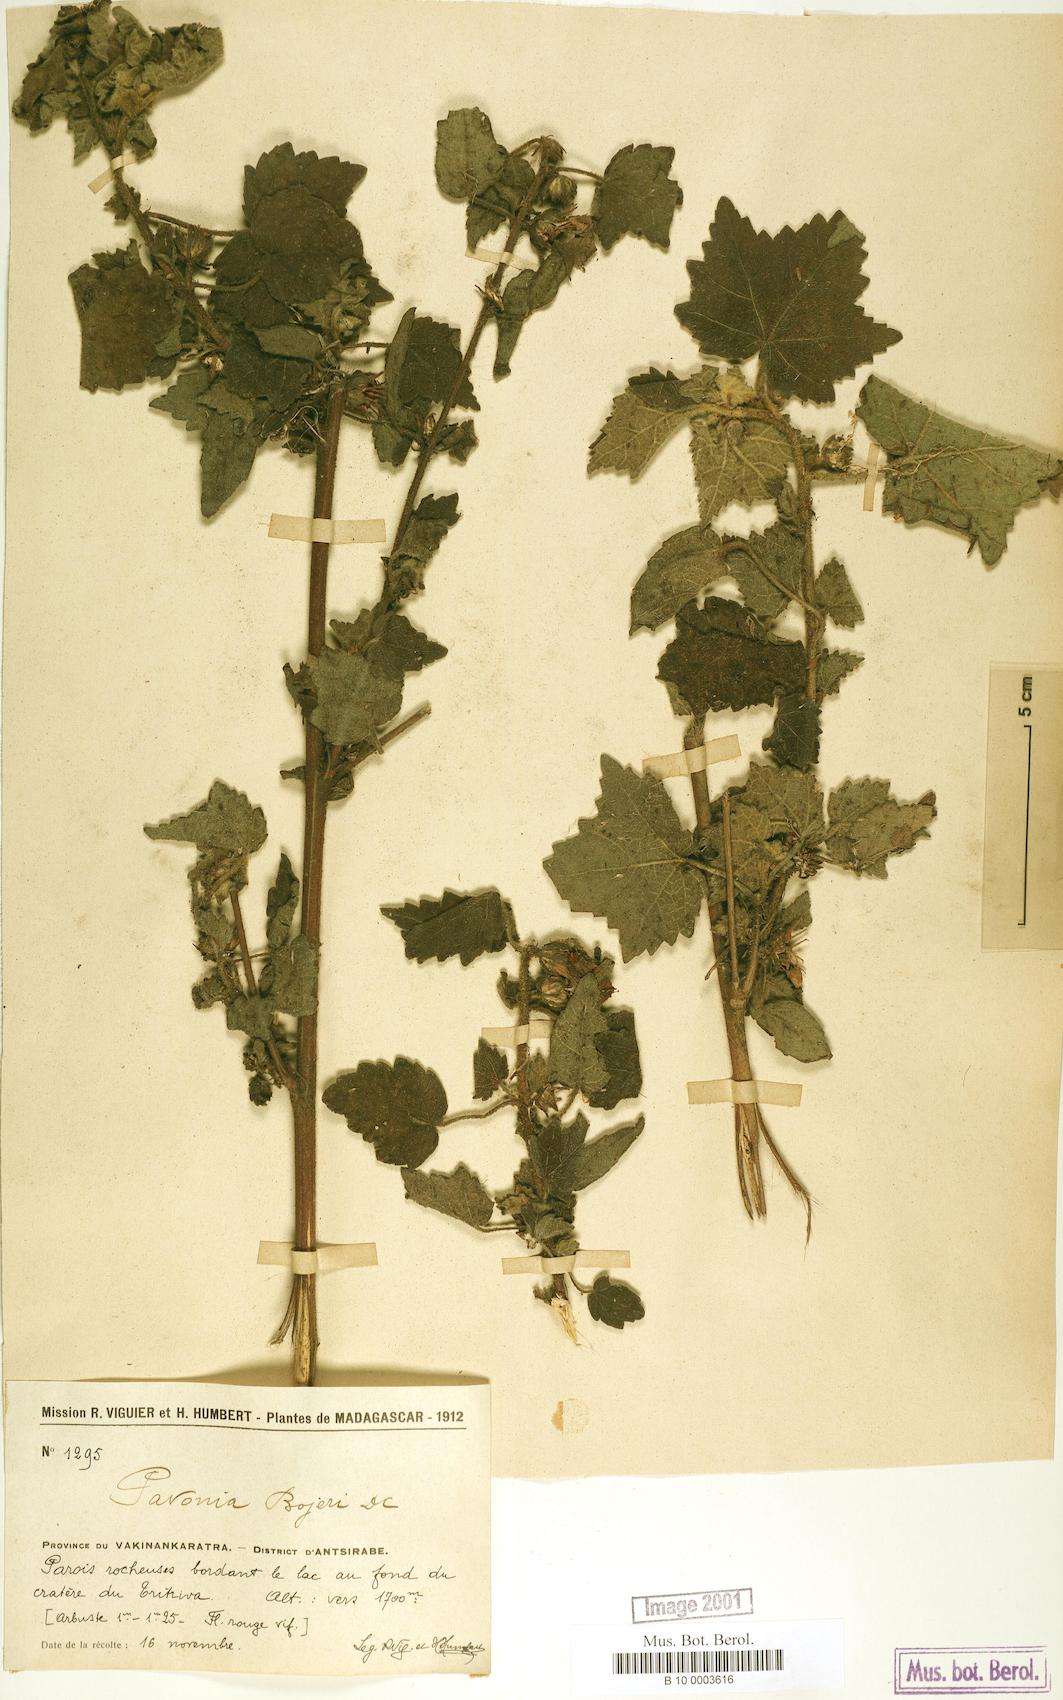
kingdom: Plantae
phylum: Tracheophyta
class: Magnoliopsida
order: Malvales
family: Malvaceae
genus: Pavonia
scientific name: Pavonia urens
